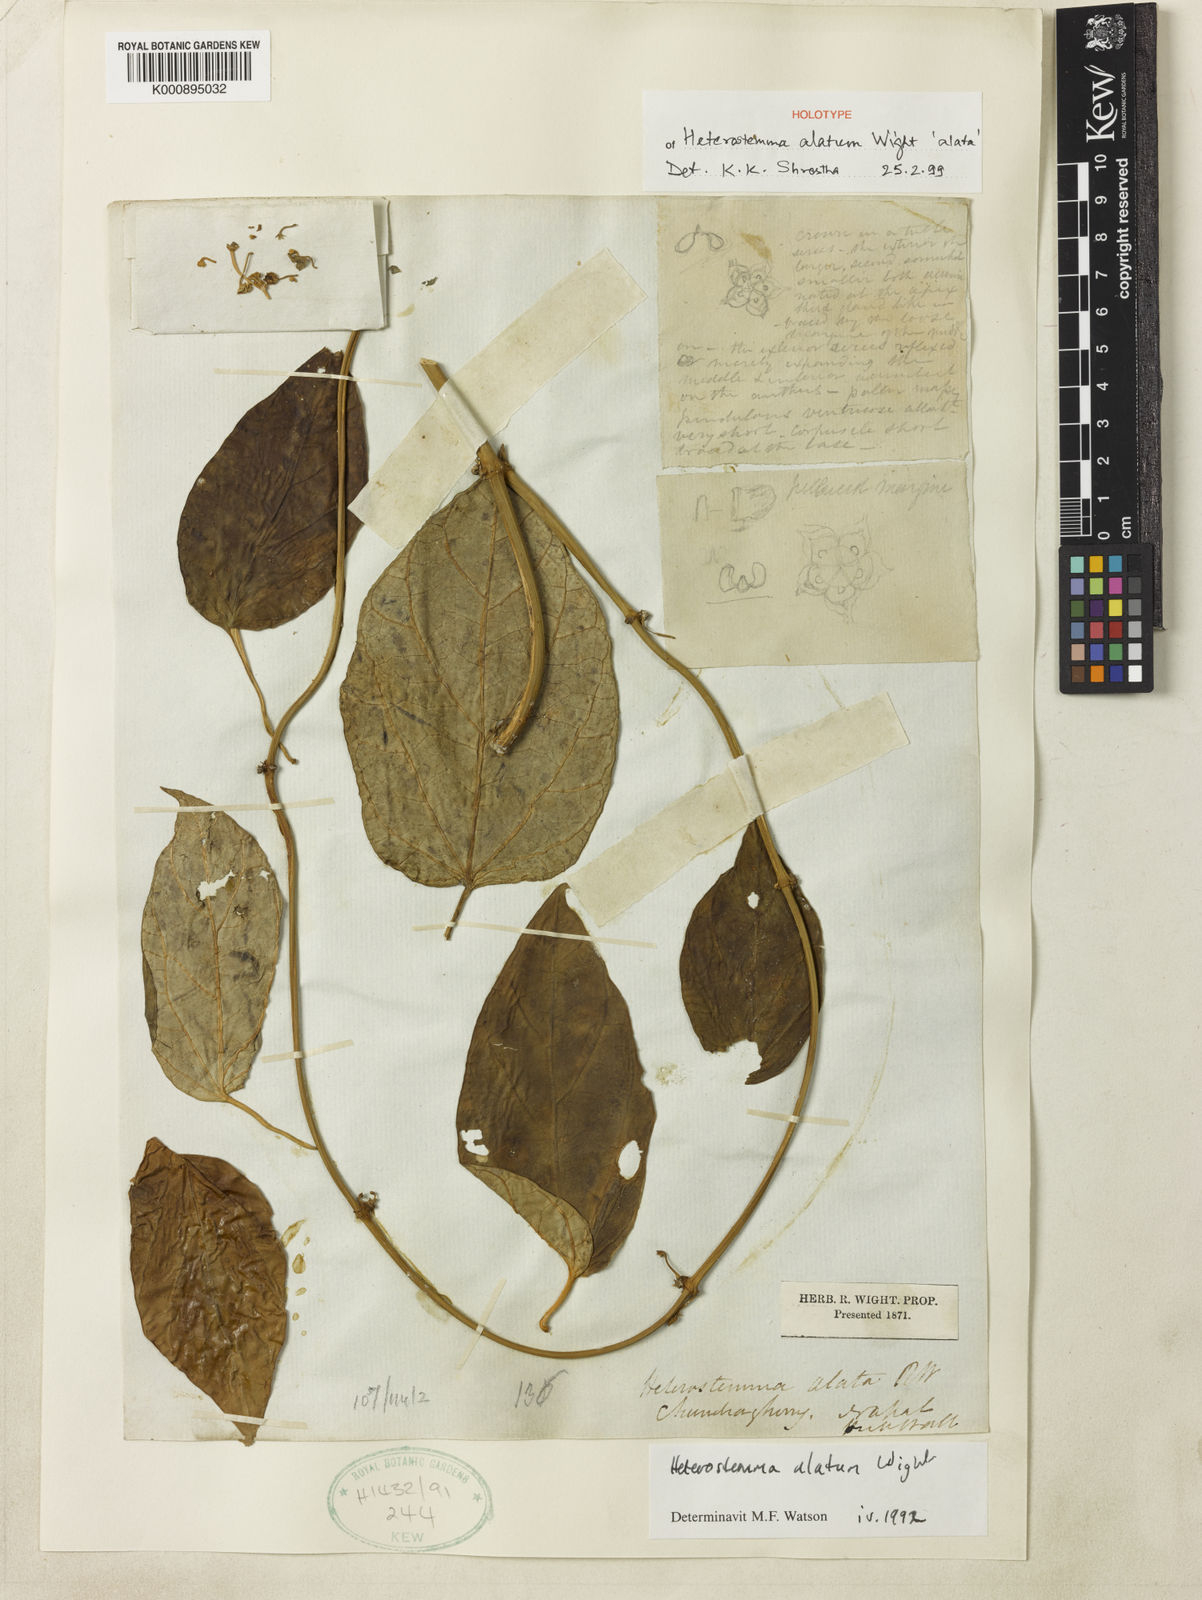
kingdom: Plantae
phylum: Tracheophyta
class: Magnoliopsida
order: Gentianales
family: Apocynaceae
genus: Heterostemma
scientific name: Heterostemma alatum
